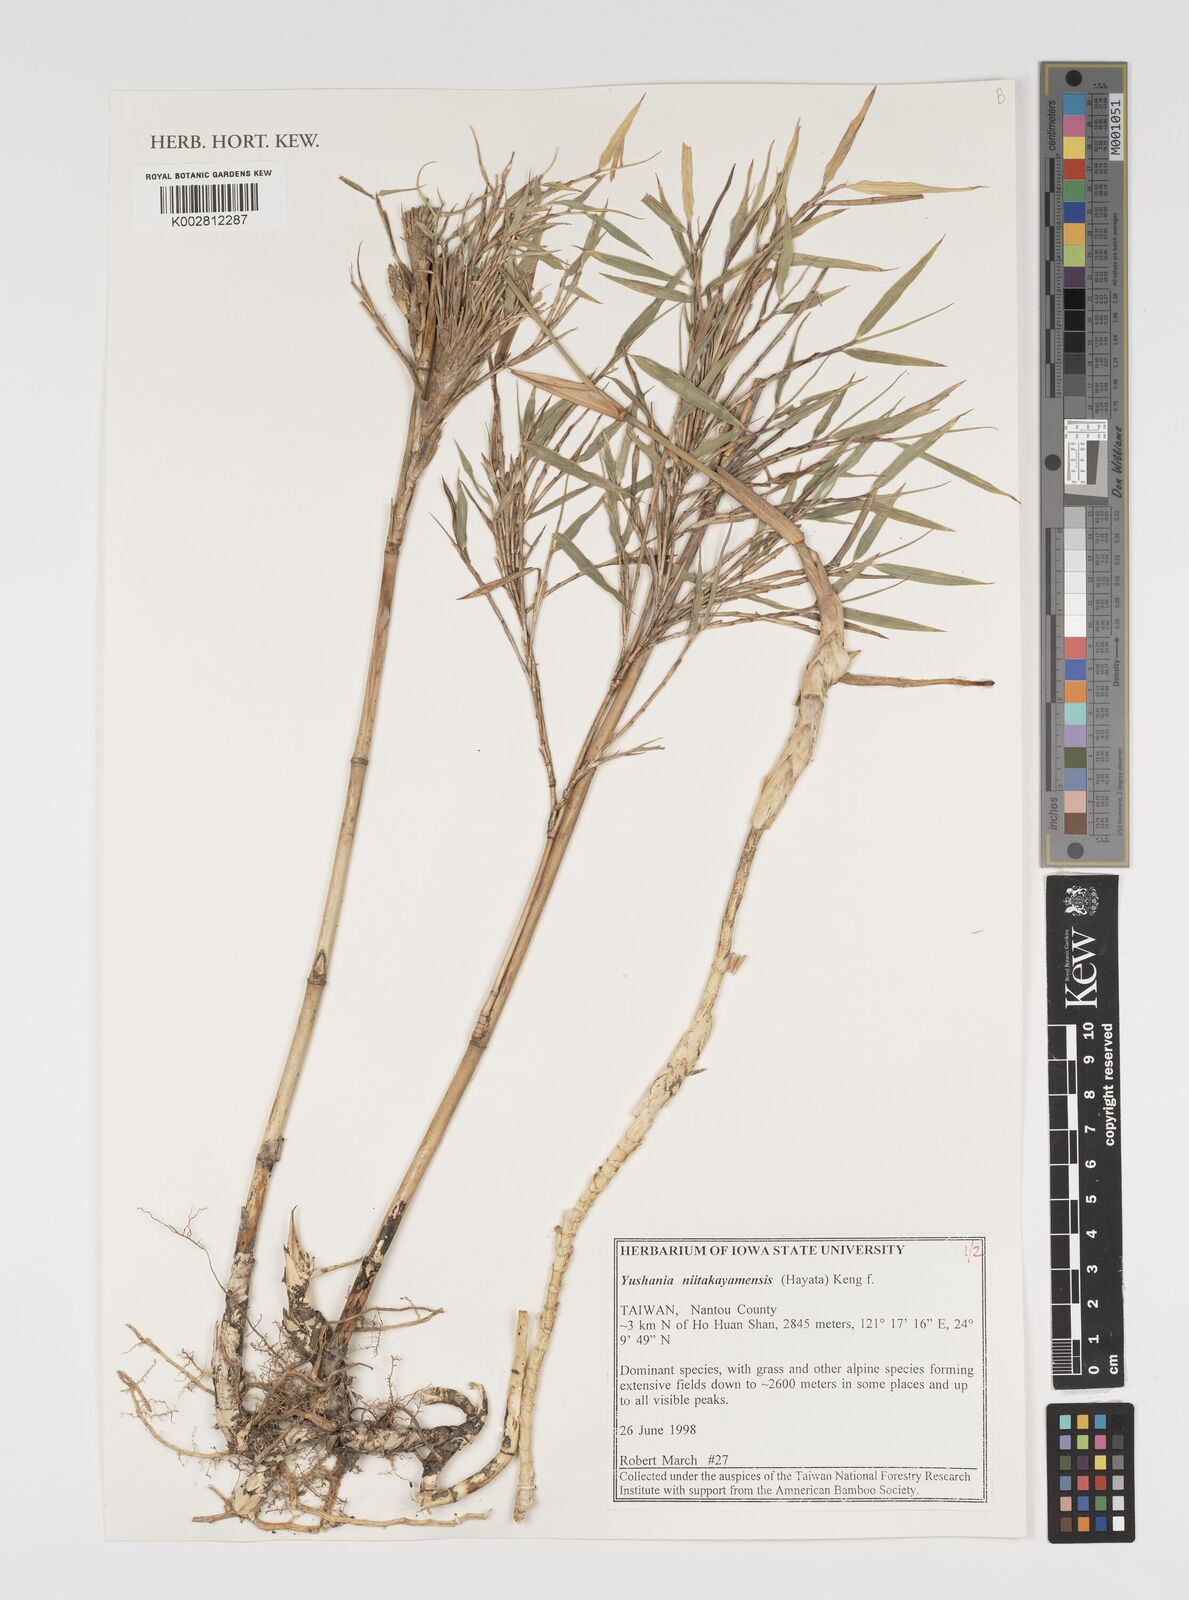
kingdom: Plantae
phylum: Tracheophyta
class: Liliopsida
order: Poales
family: Poaceae
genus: Yushania
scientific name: Yushania niitakayamensis
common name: Yushan cane
